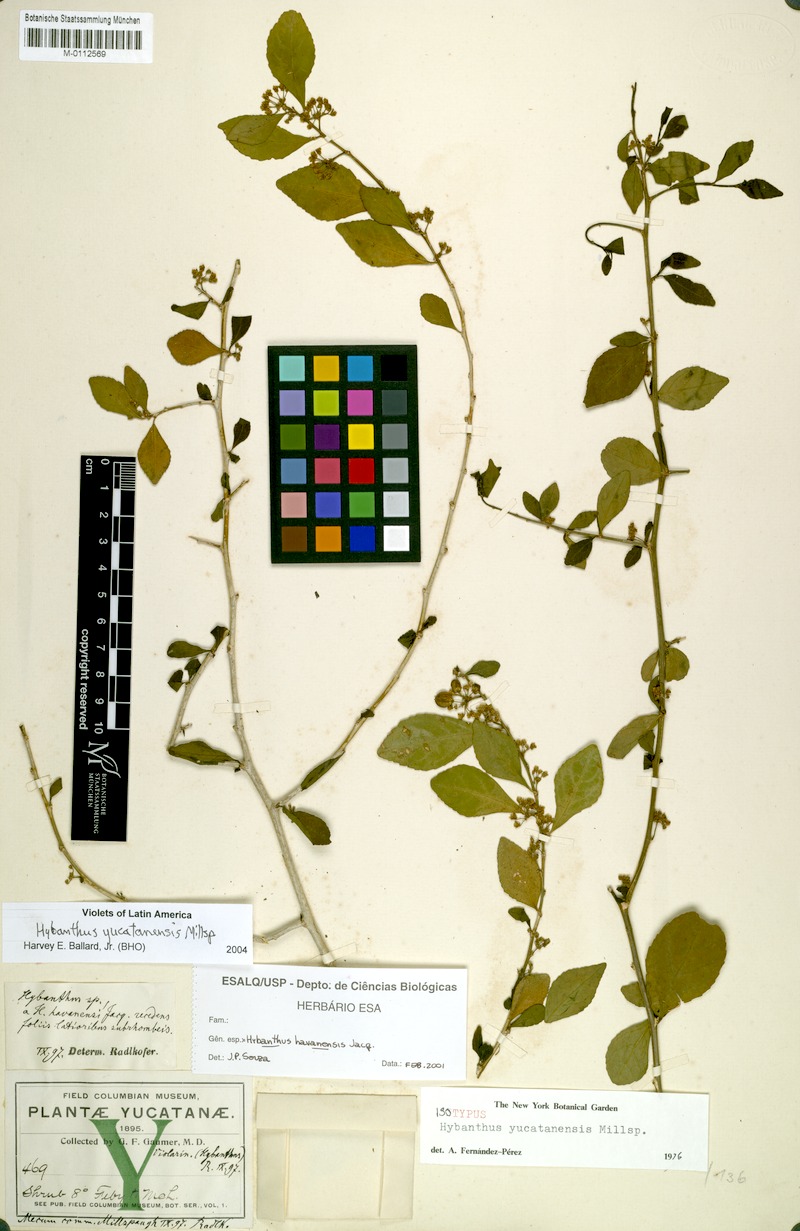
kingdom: Plantae
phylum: Tracheophyta
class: Magnoliopsida
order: Malpighiales
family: Violaceae
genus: Hybanthus
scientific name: Hybanthus yucatanensis
